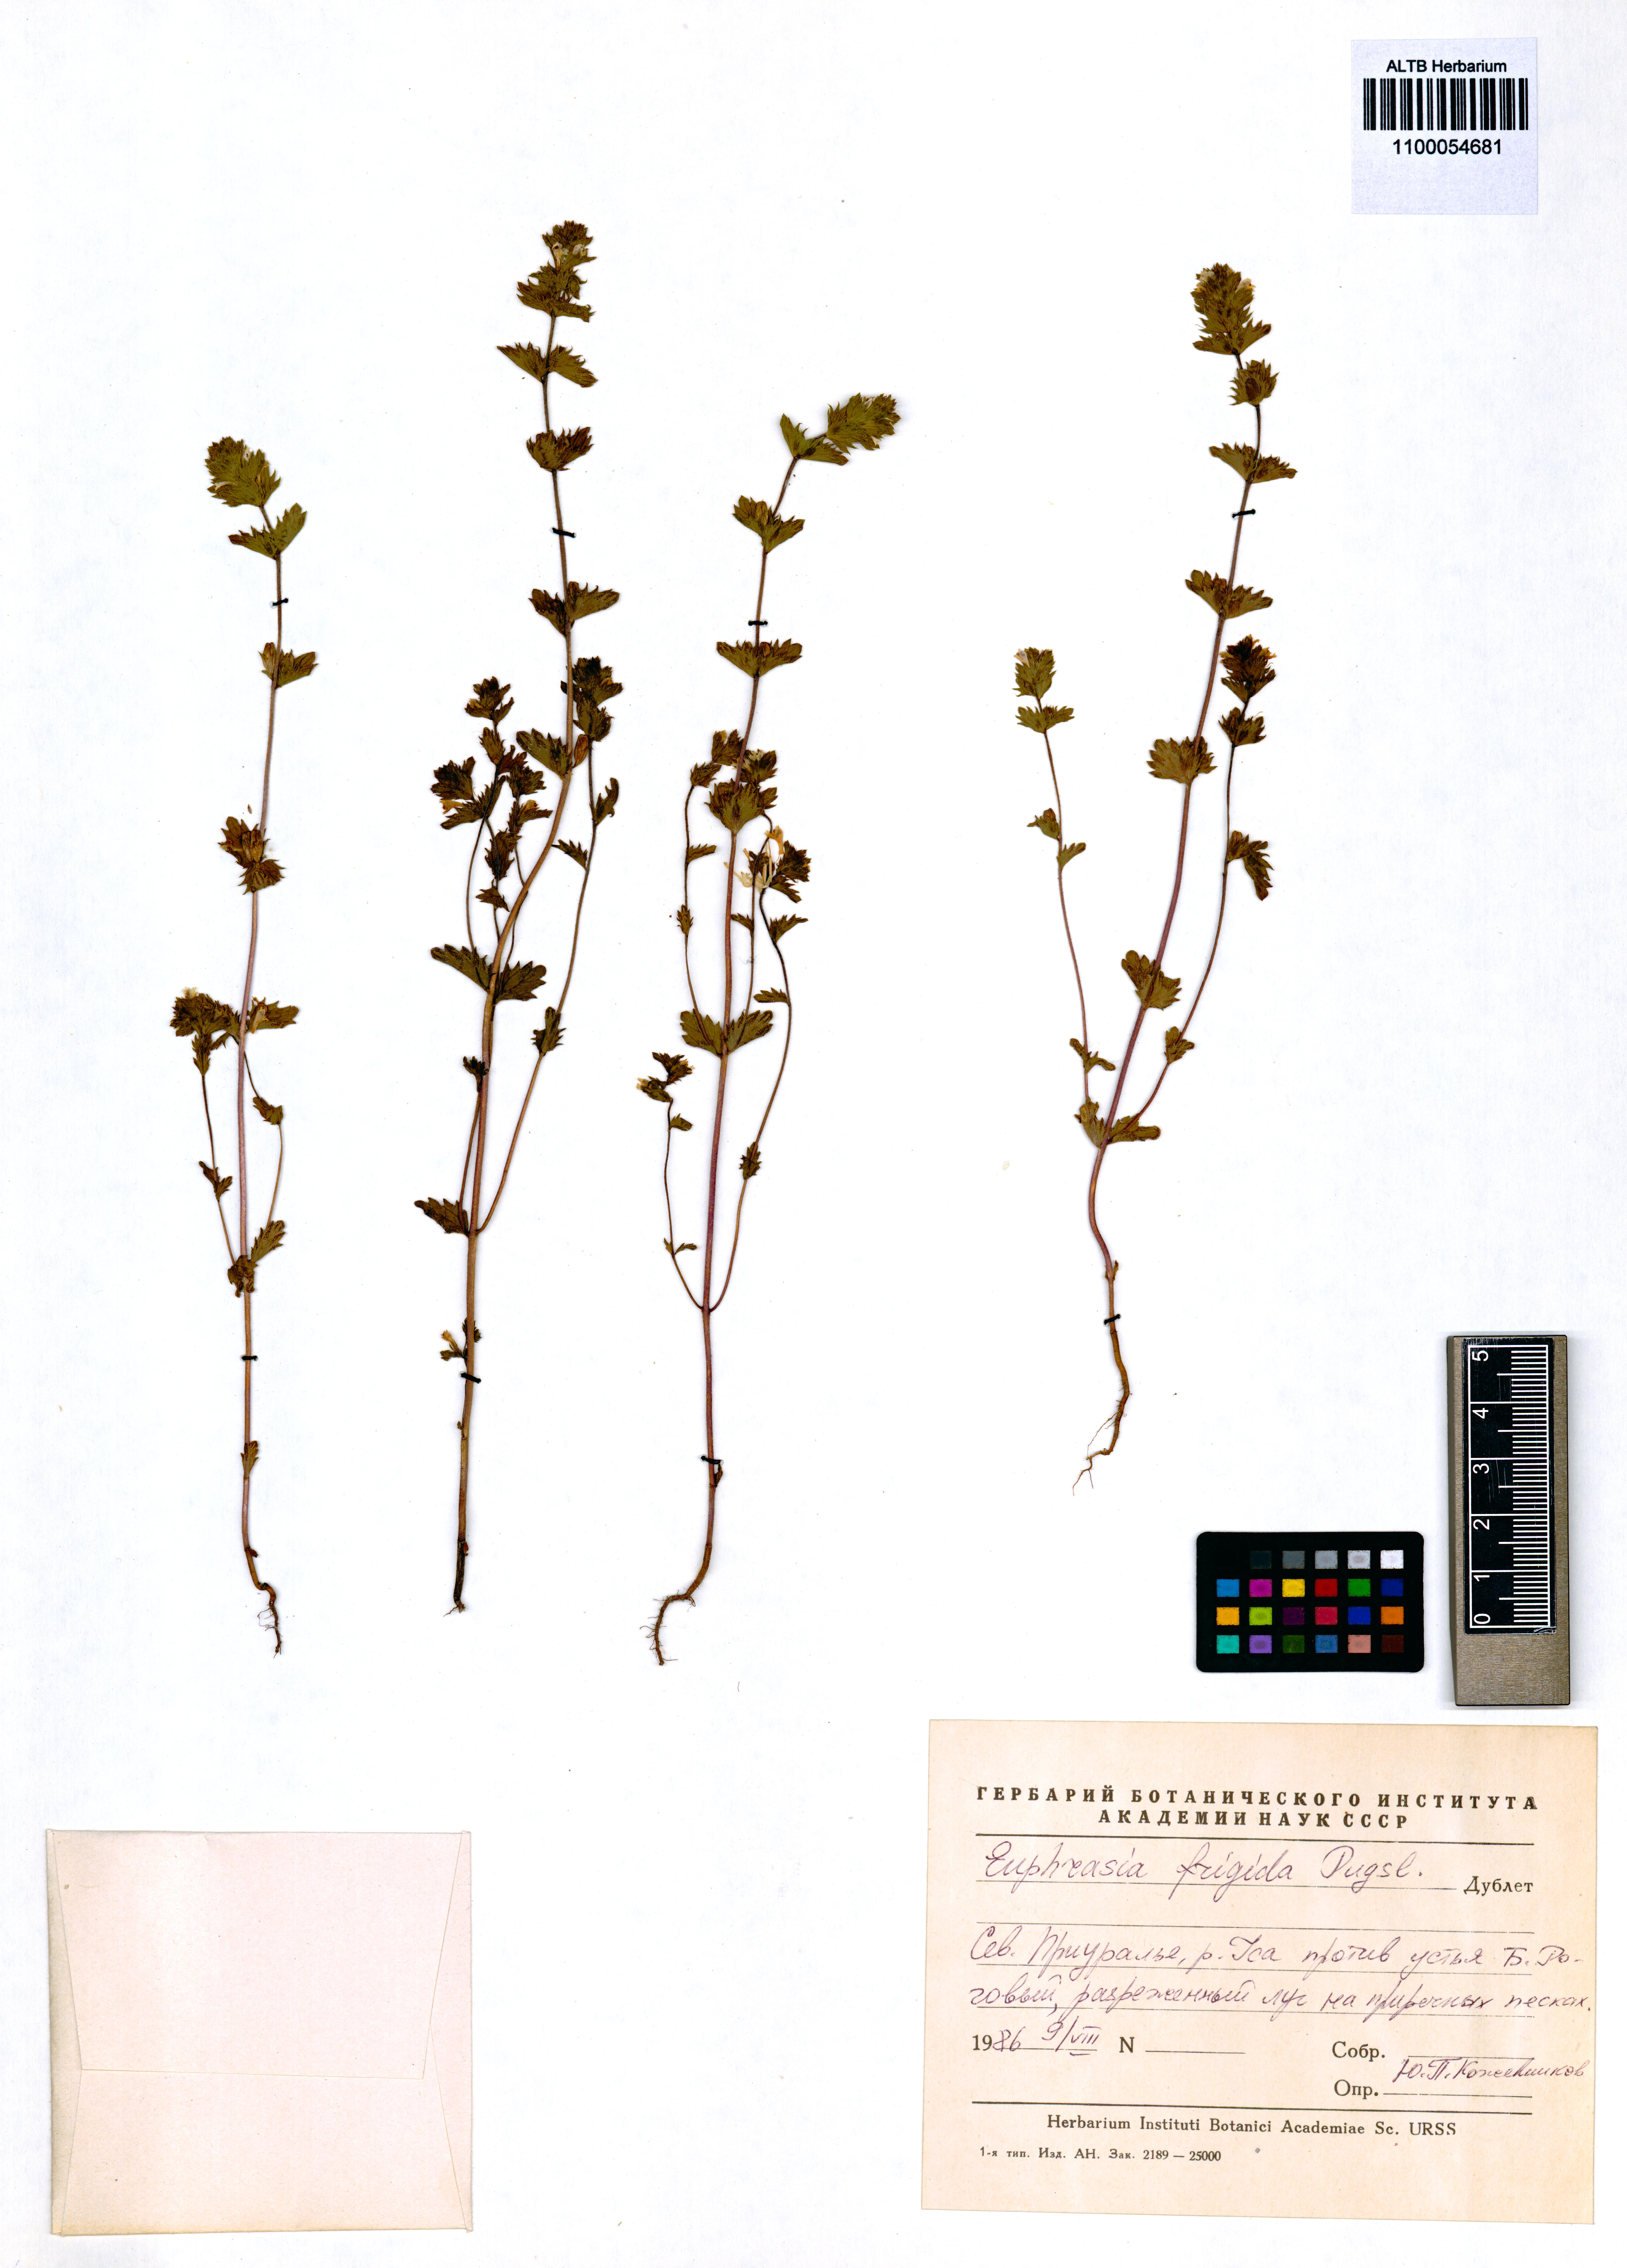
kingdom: Plantae
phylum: Tracheophyta
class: Magnoliopsida
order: Lamiales
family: Orobanchaceae
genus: Euphrasia
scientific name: Euphrasia frigida
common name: An eyebright
